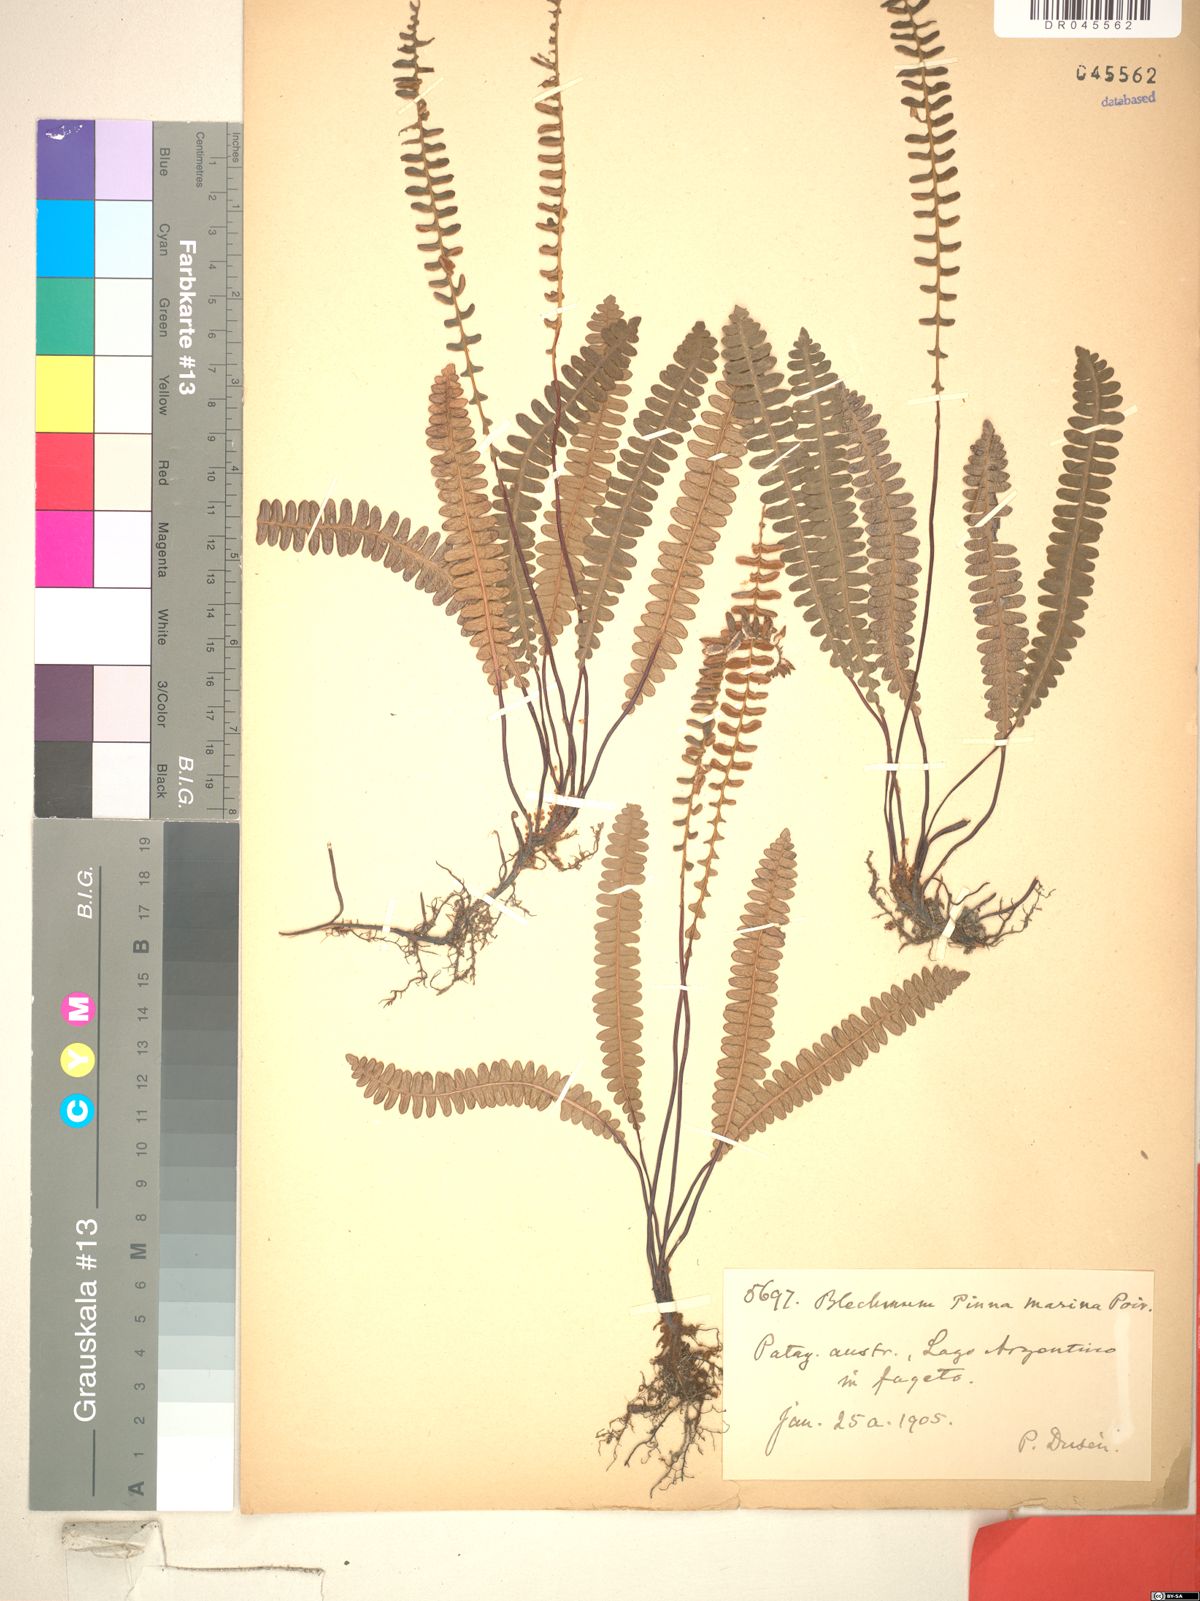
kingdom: Plantae
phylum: Tracheophyta
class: Polypodiopsida
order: Polypodiales
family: Blechnaceae
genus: Austroblechnum
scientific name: Austroblechnum penna-marina
